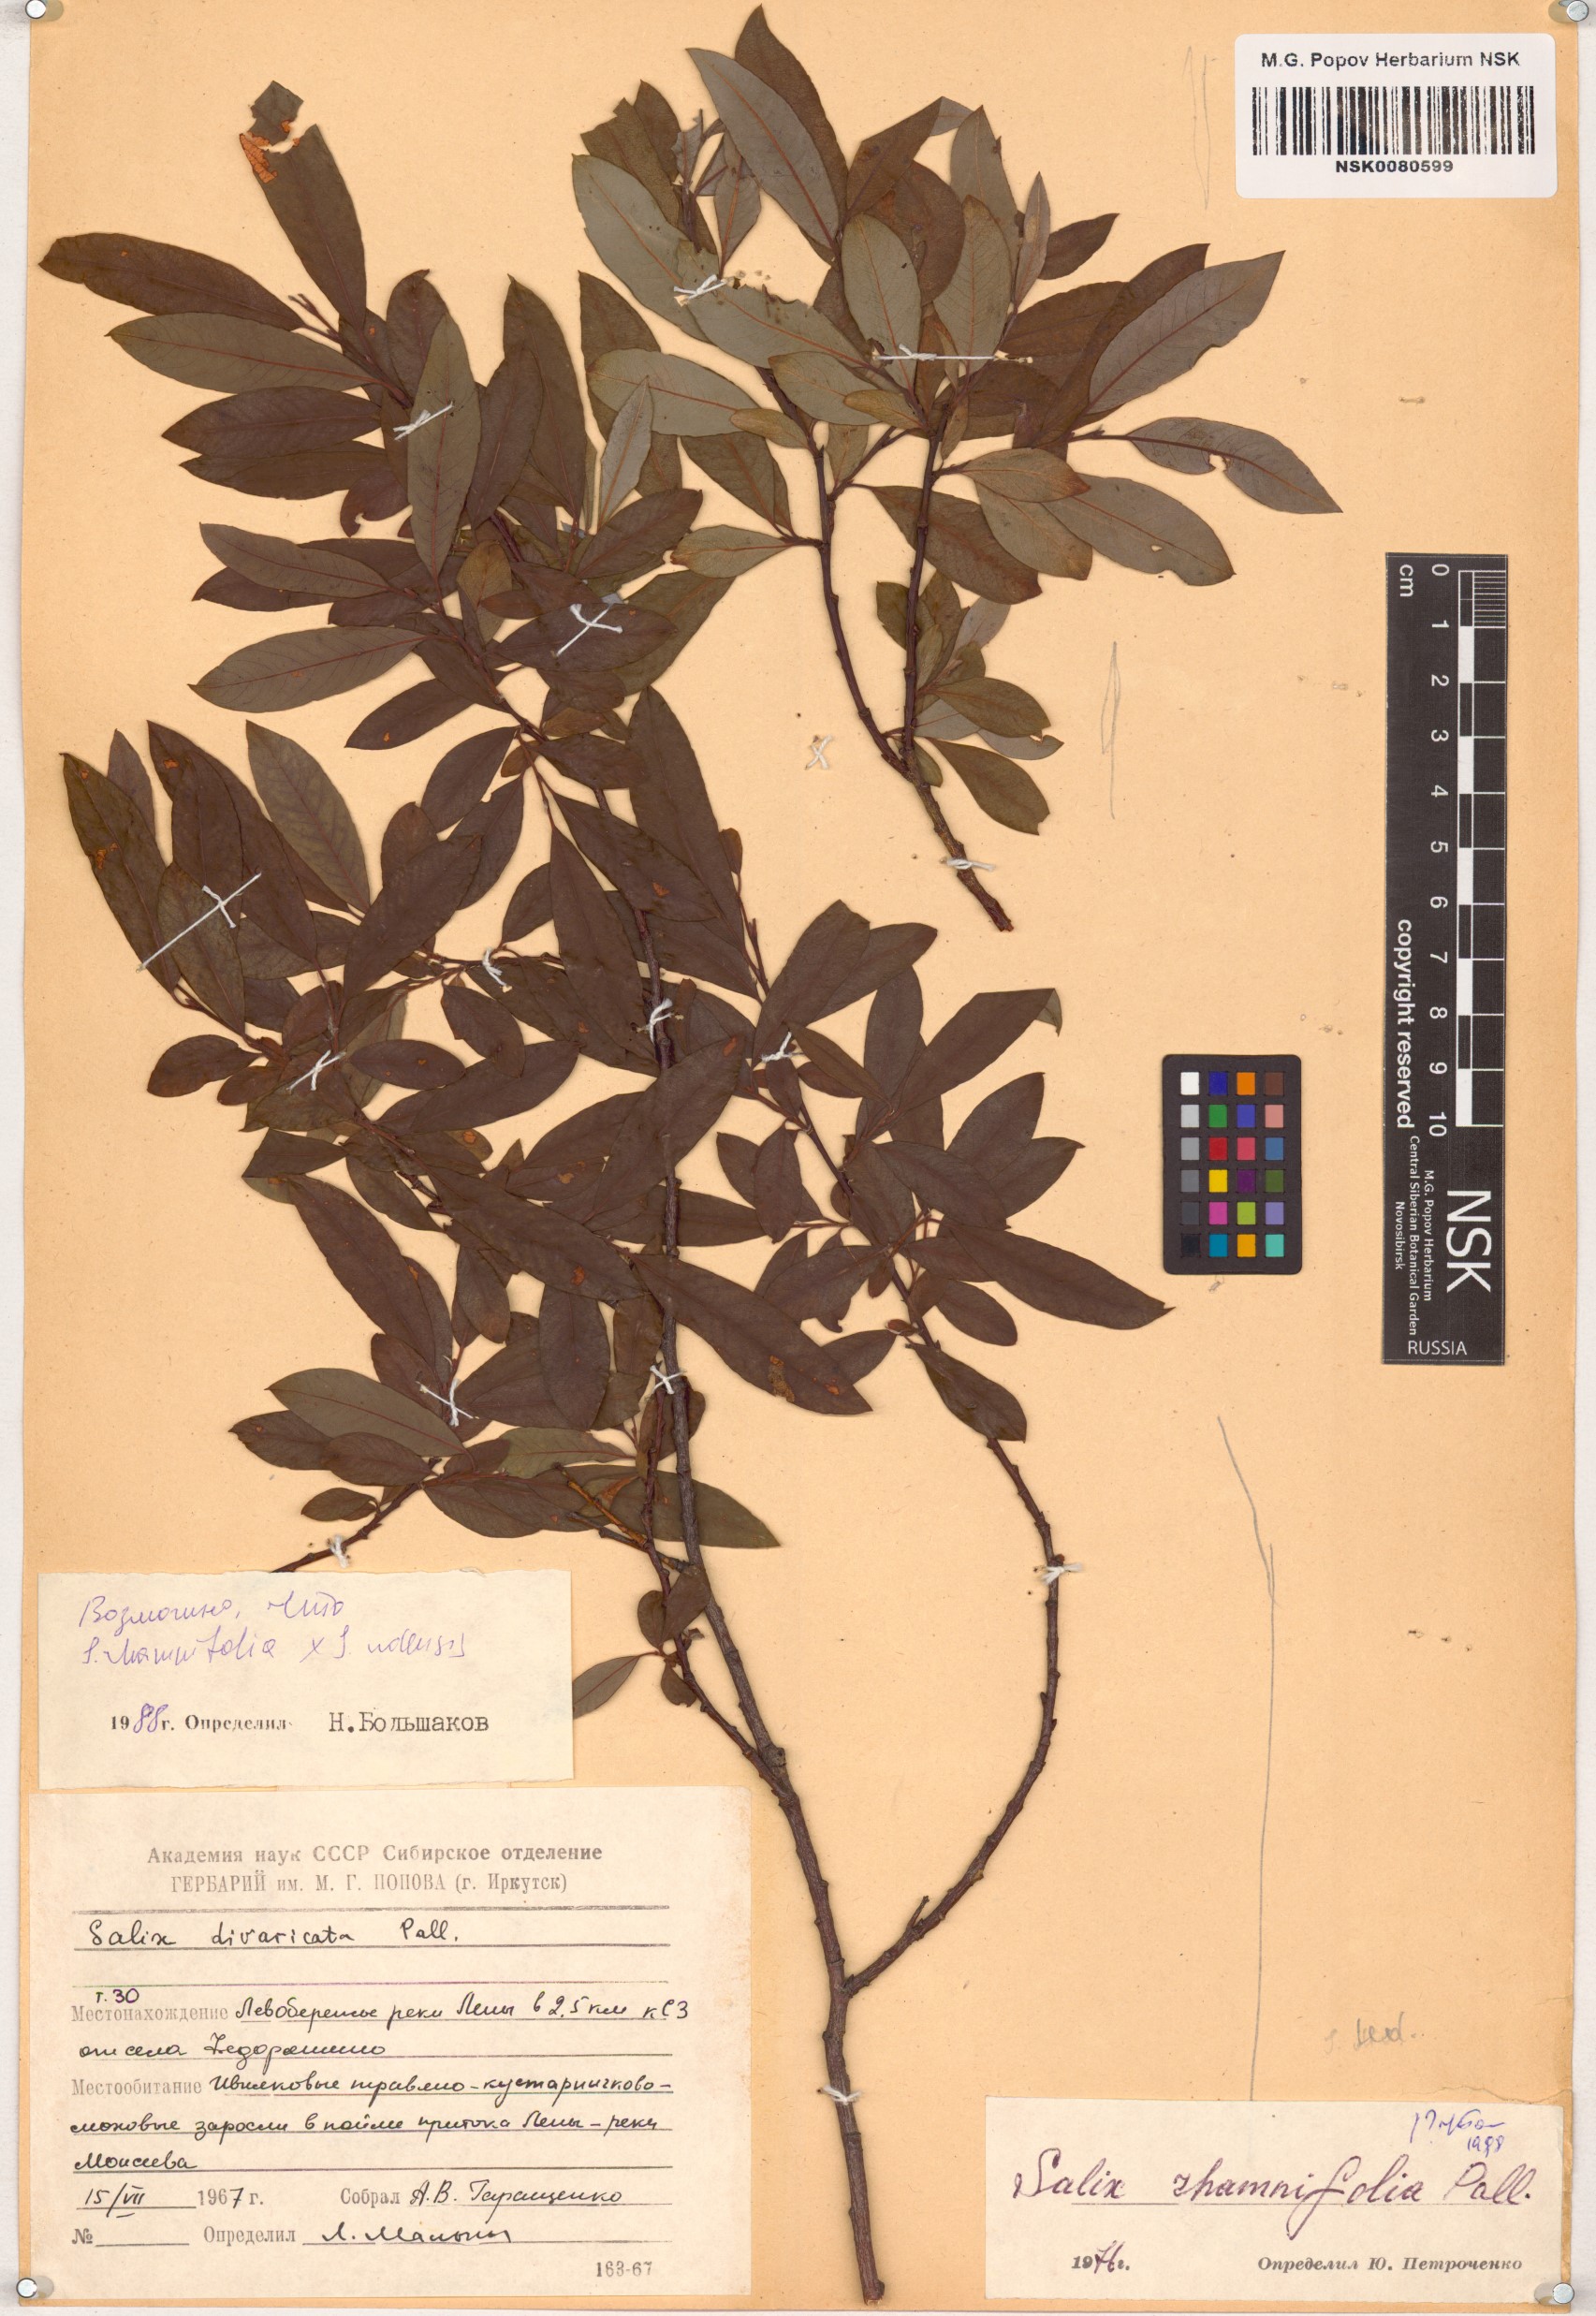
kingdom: Plantae
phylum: Tracheophyta
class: Magnoliopsida
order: Malpighiales
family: Salicaceae
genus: Salix
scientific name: Salix rhamnifolia
